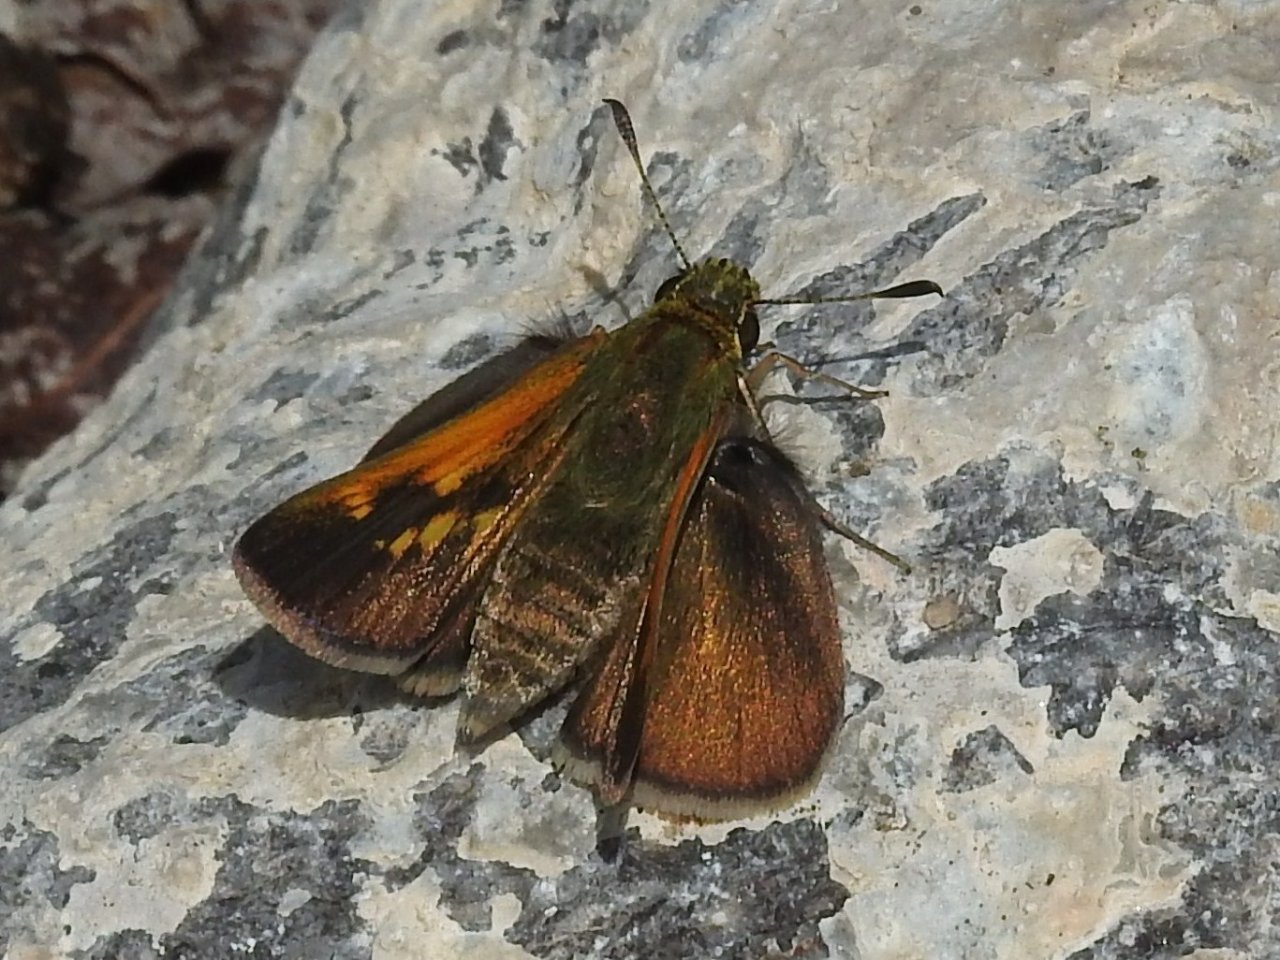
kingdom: Animalia
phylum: Arthropoda
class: Insecta
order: Lepidoptera
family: Hesperiidae
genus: Polites
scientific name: Polites
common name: Crossline Skipper
